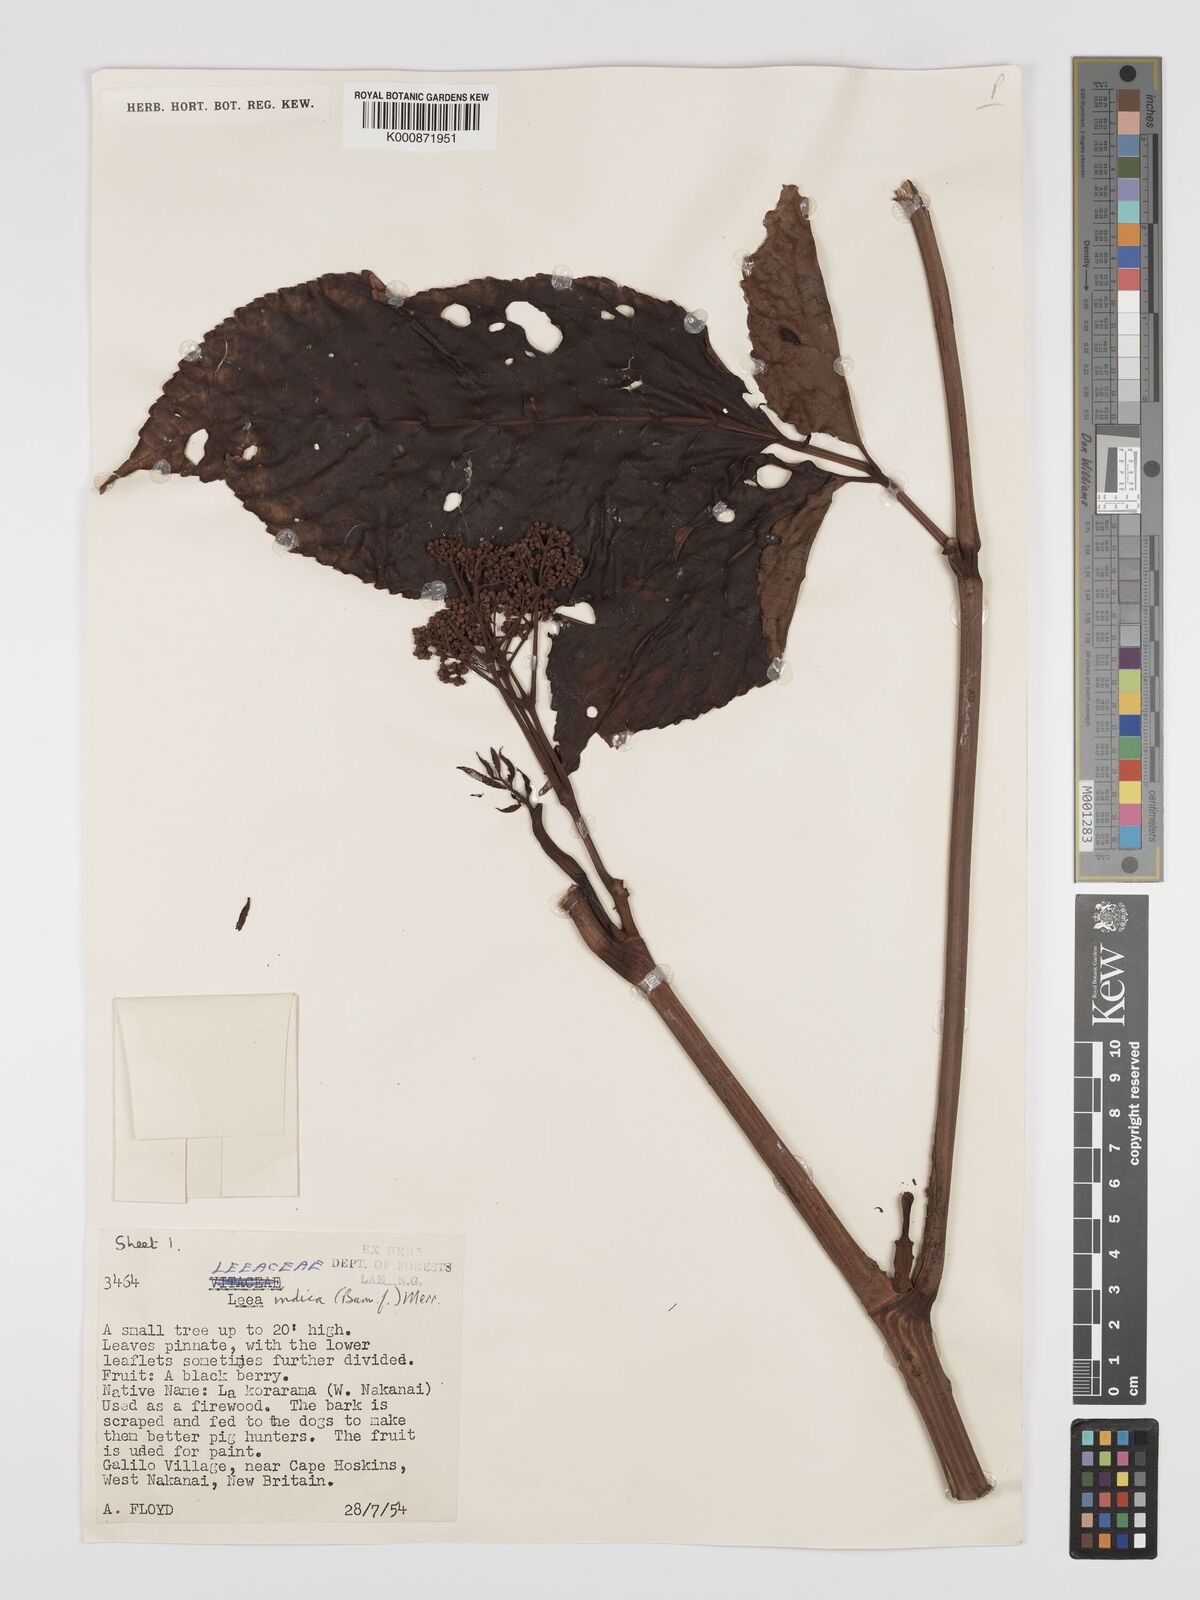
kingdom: Plantae
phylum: Tracheophyta
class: Magnoliopsida
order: Vitales
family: Vitaceae
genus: Leea
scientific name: Leea indica
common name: Bandicoot-berry
